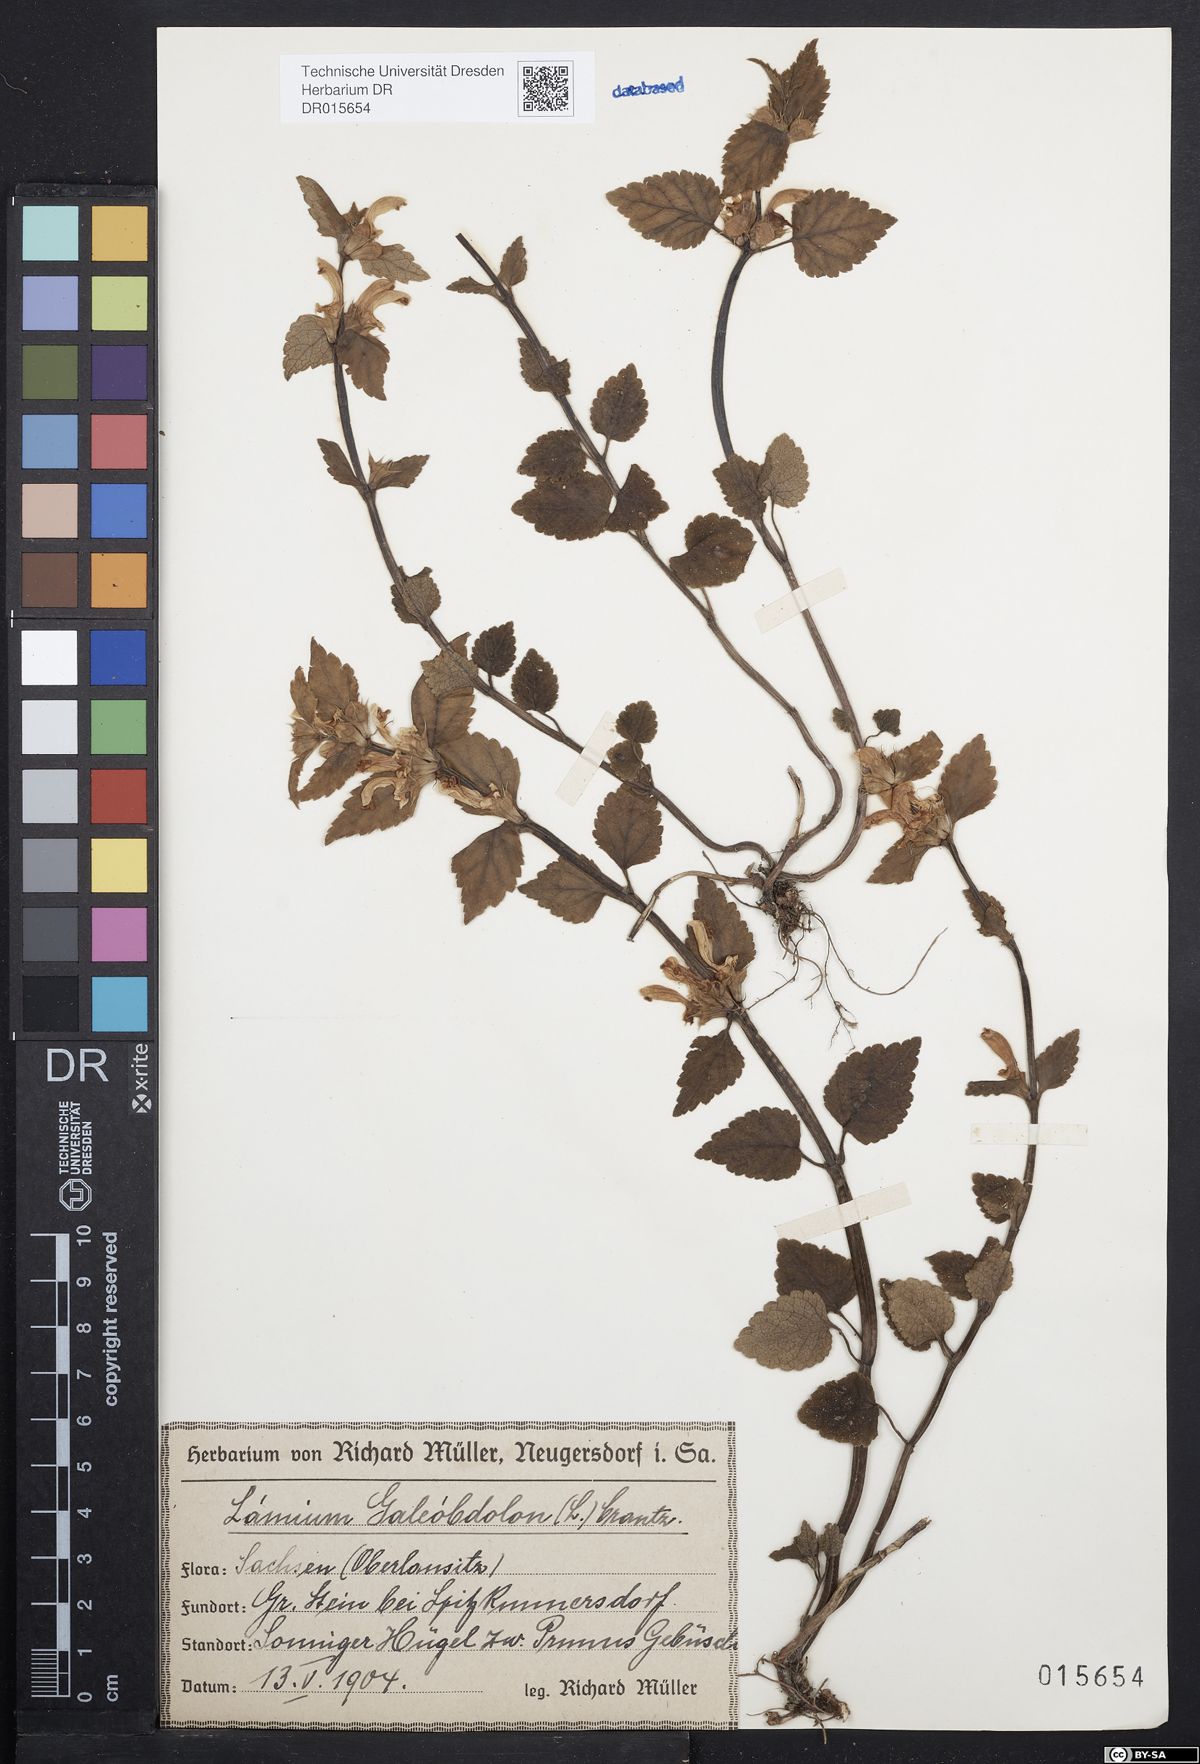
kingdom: Plantae
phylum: Tracheophyta
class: Magnoliopsida
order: Lamiales
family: Lamiaceae
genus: Lamium
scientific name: Lamium galeobdolon
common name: Yellow archangel
